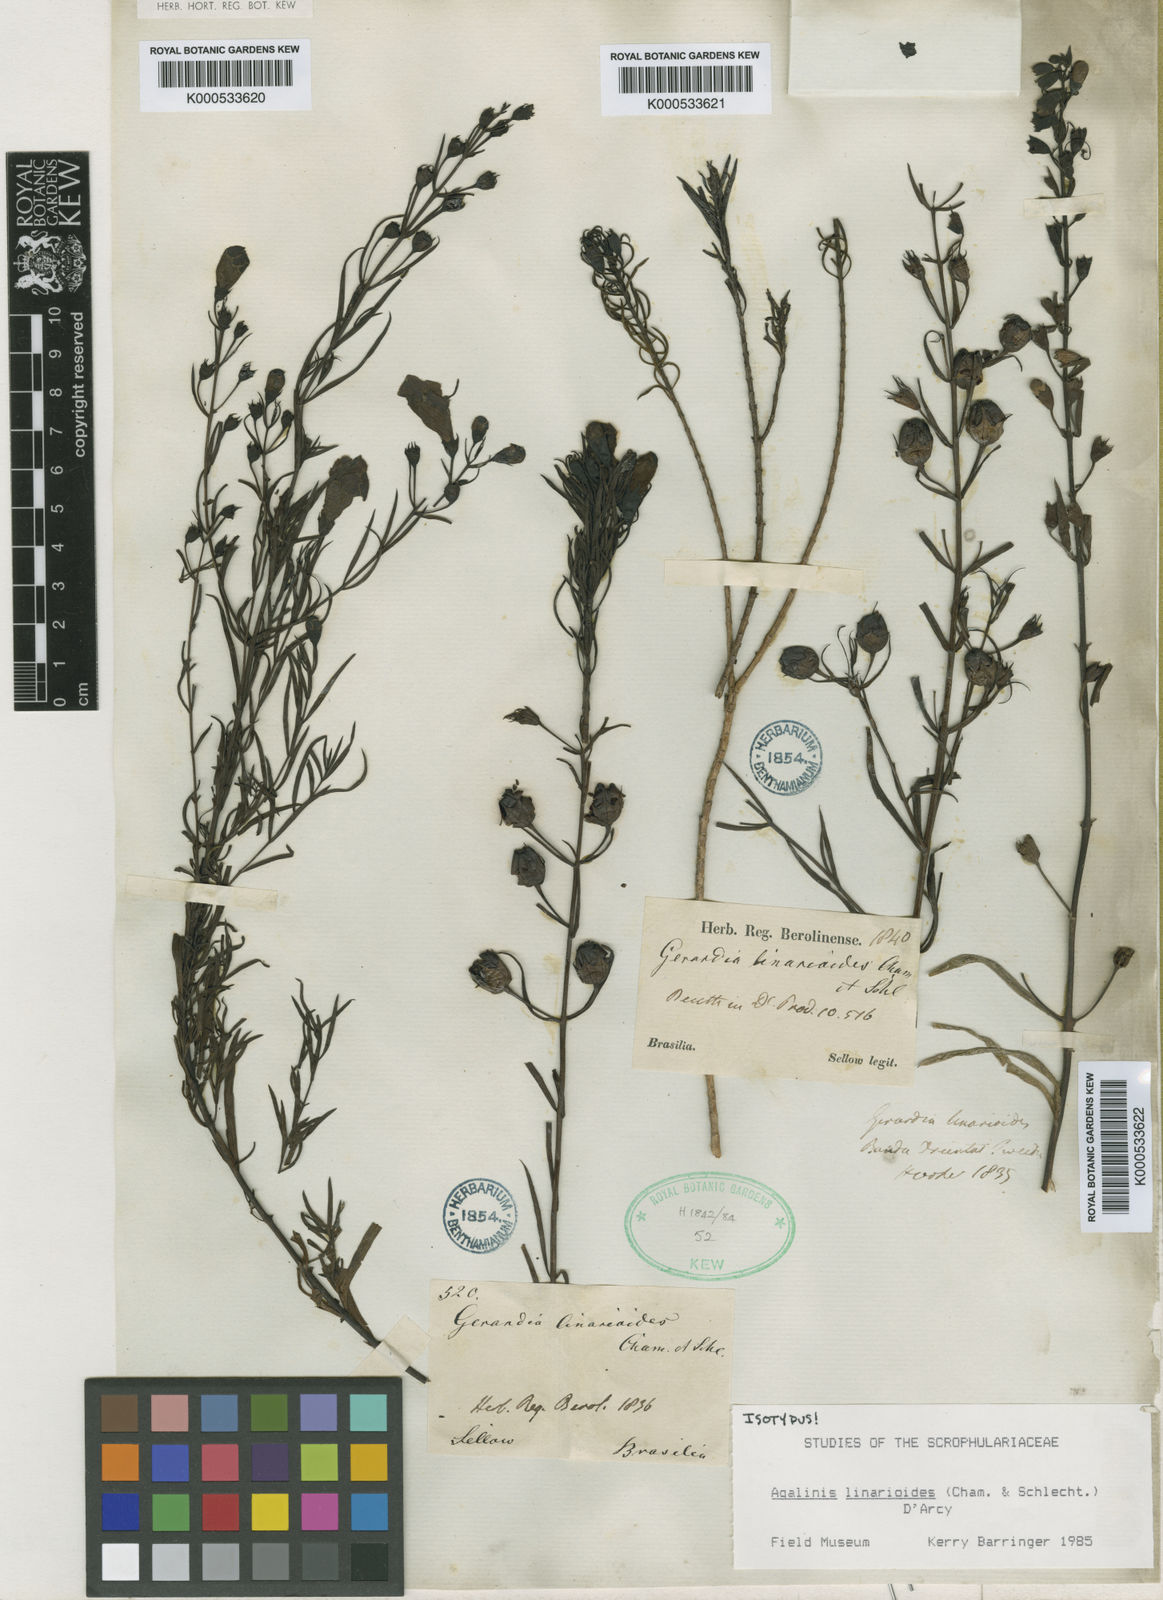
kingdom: Plantae
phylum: Tracheophyta
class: Magnoliopsida
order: Lamiales
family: Orobanchaceae
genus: Agalinis
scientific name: Agalinis linarioides
